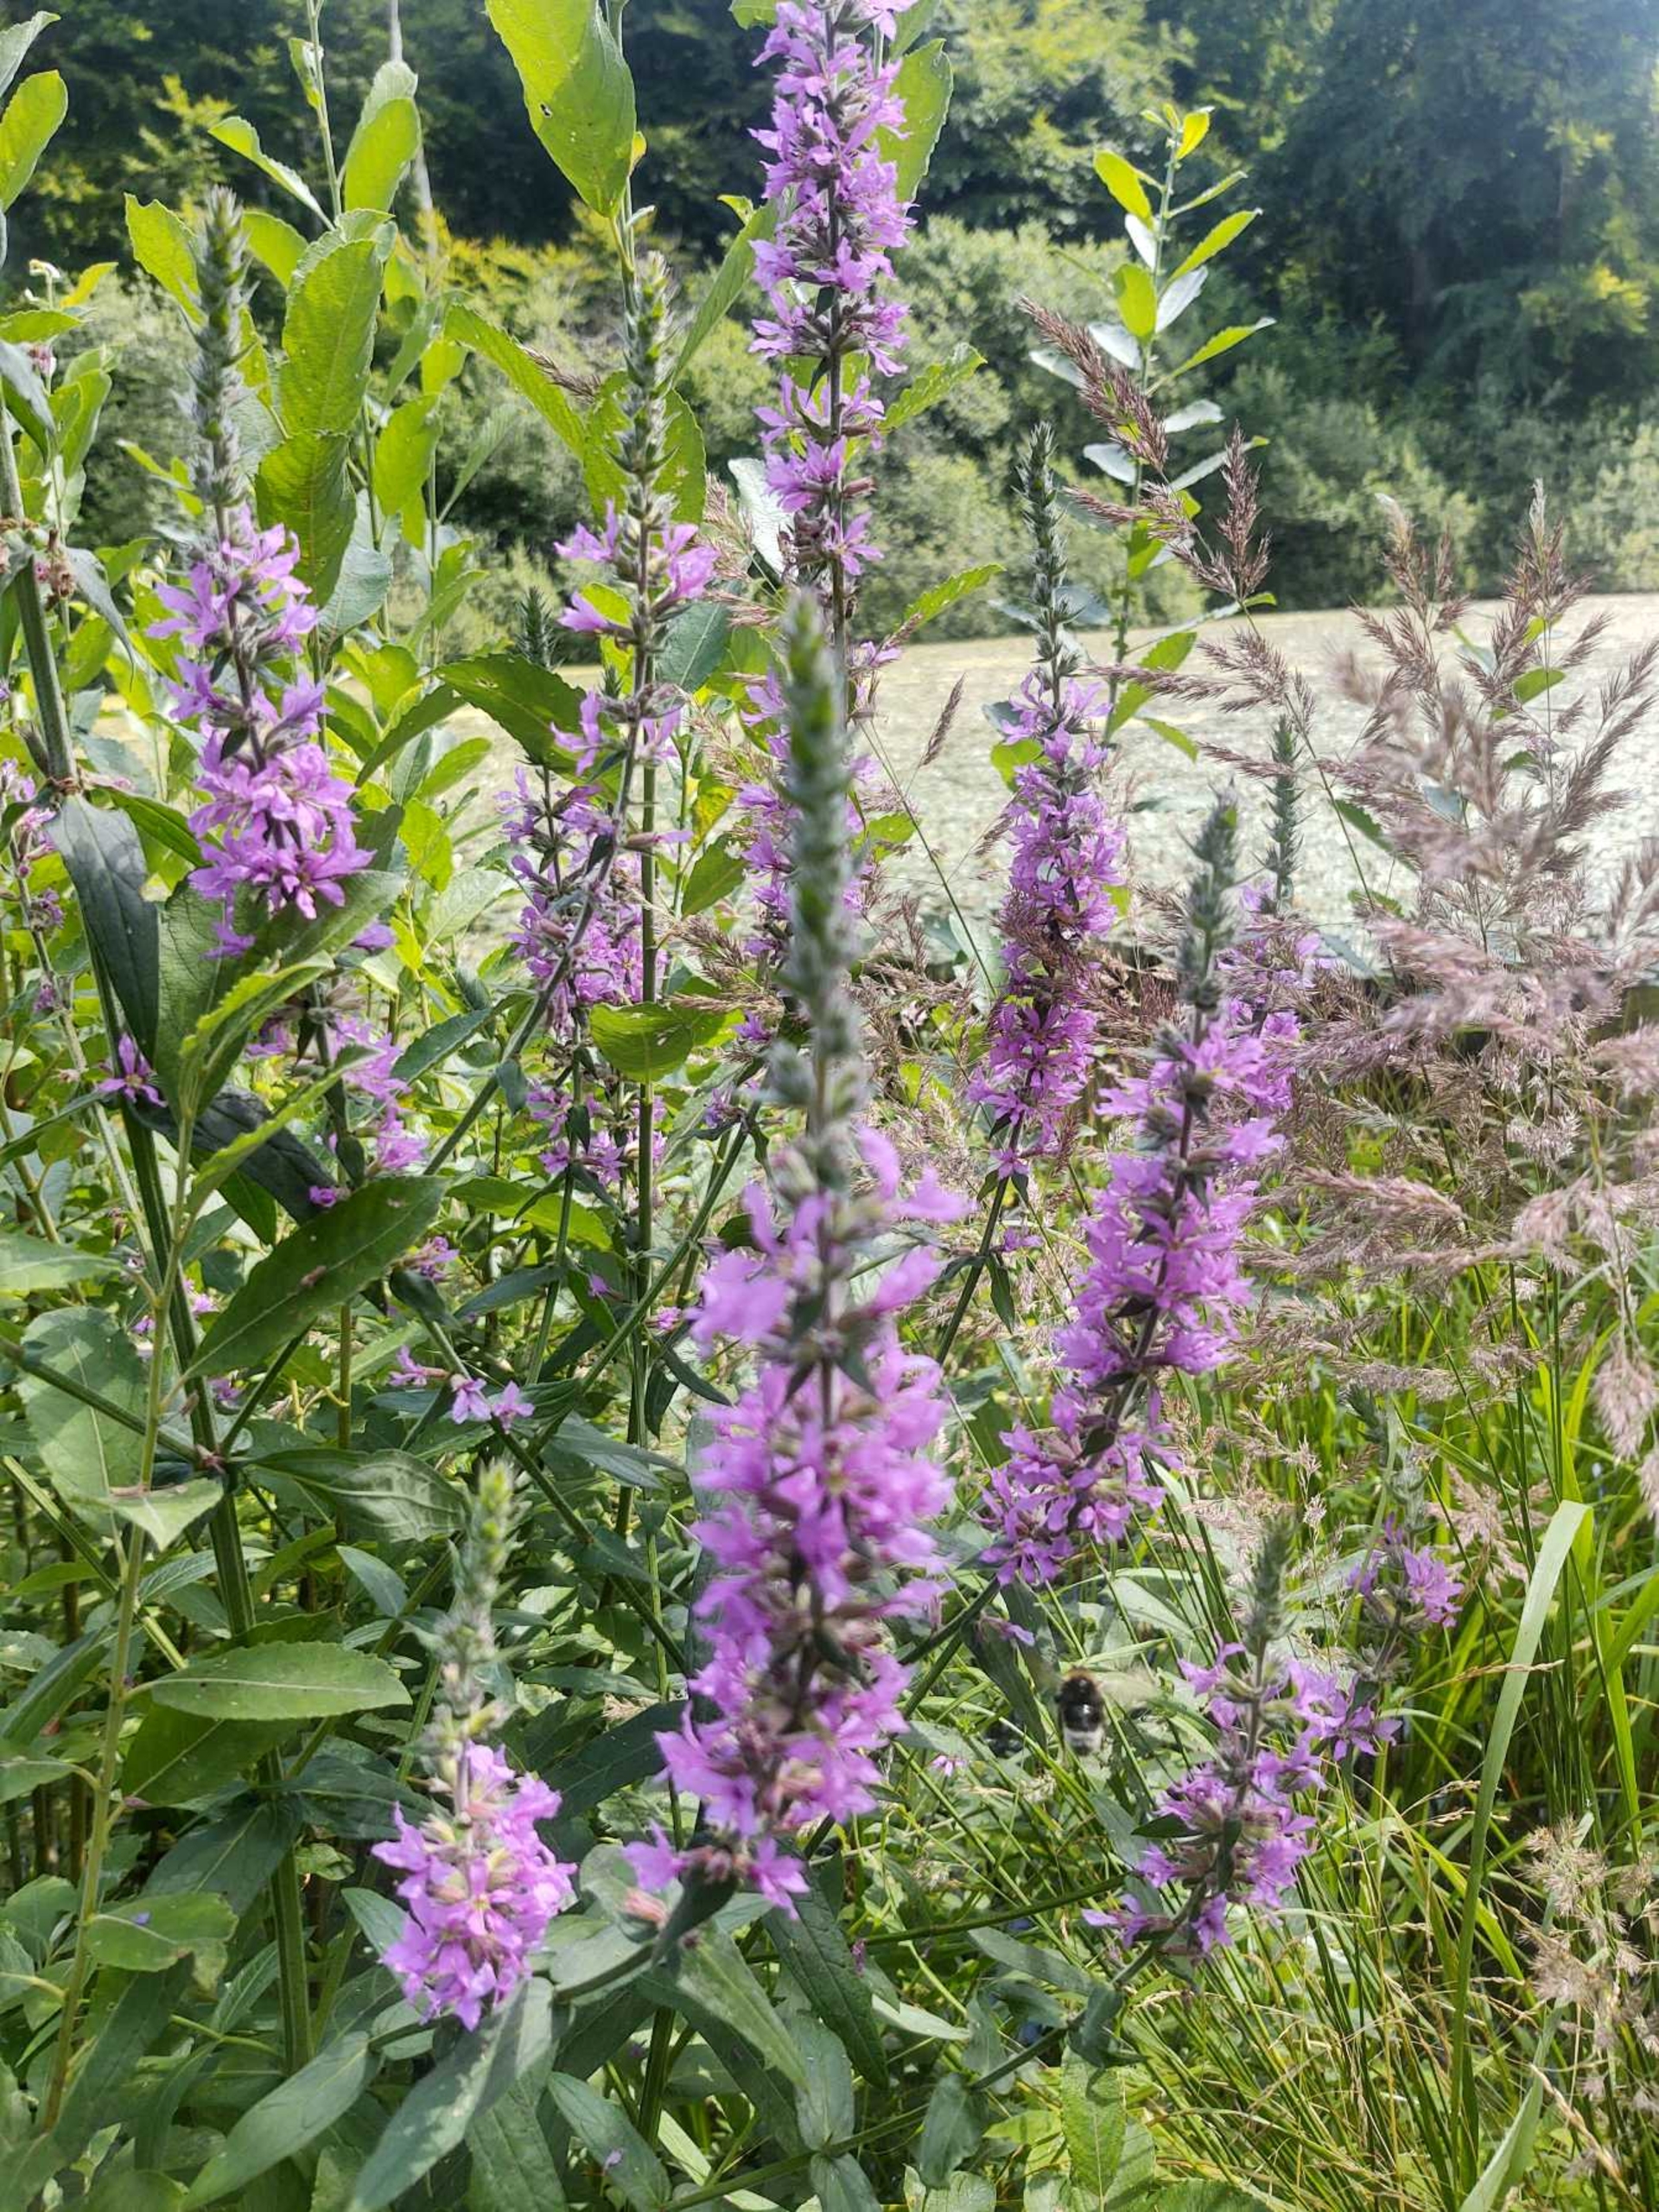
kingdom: Plantae
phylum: Tracheophyta
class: Magnoliopsida
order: Myrtales
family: Lythraceae
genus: Lythrum
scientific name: Lythrum salicaria
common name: Kattehale
